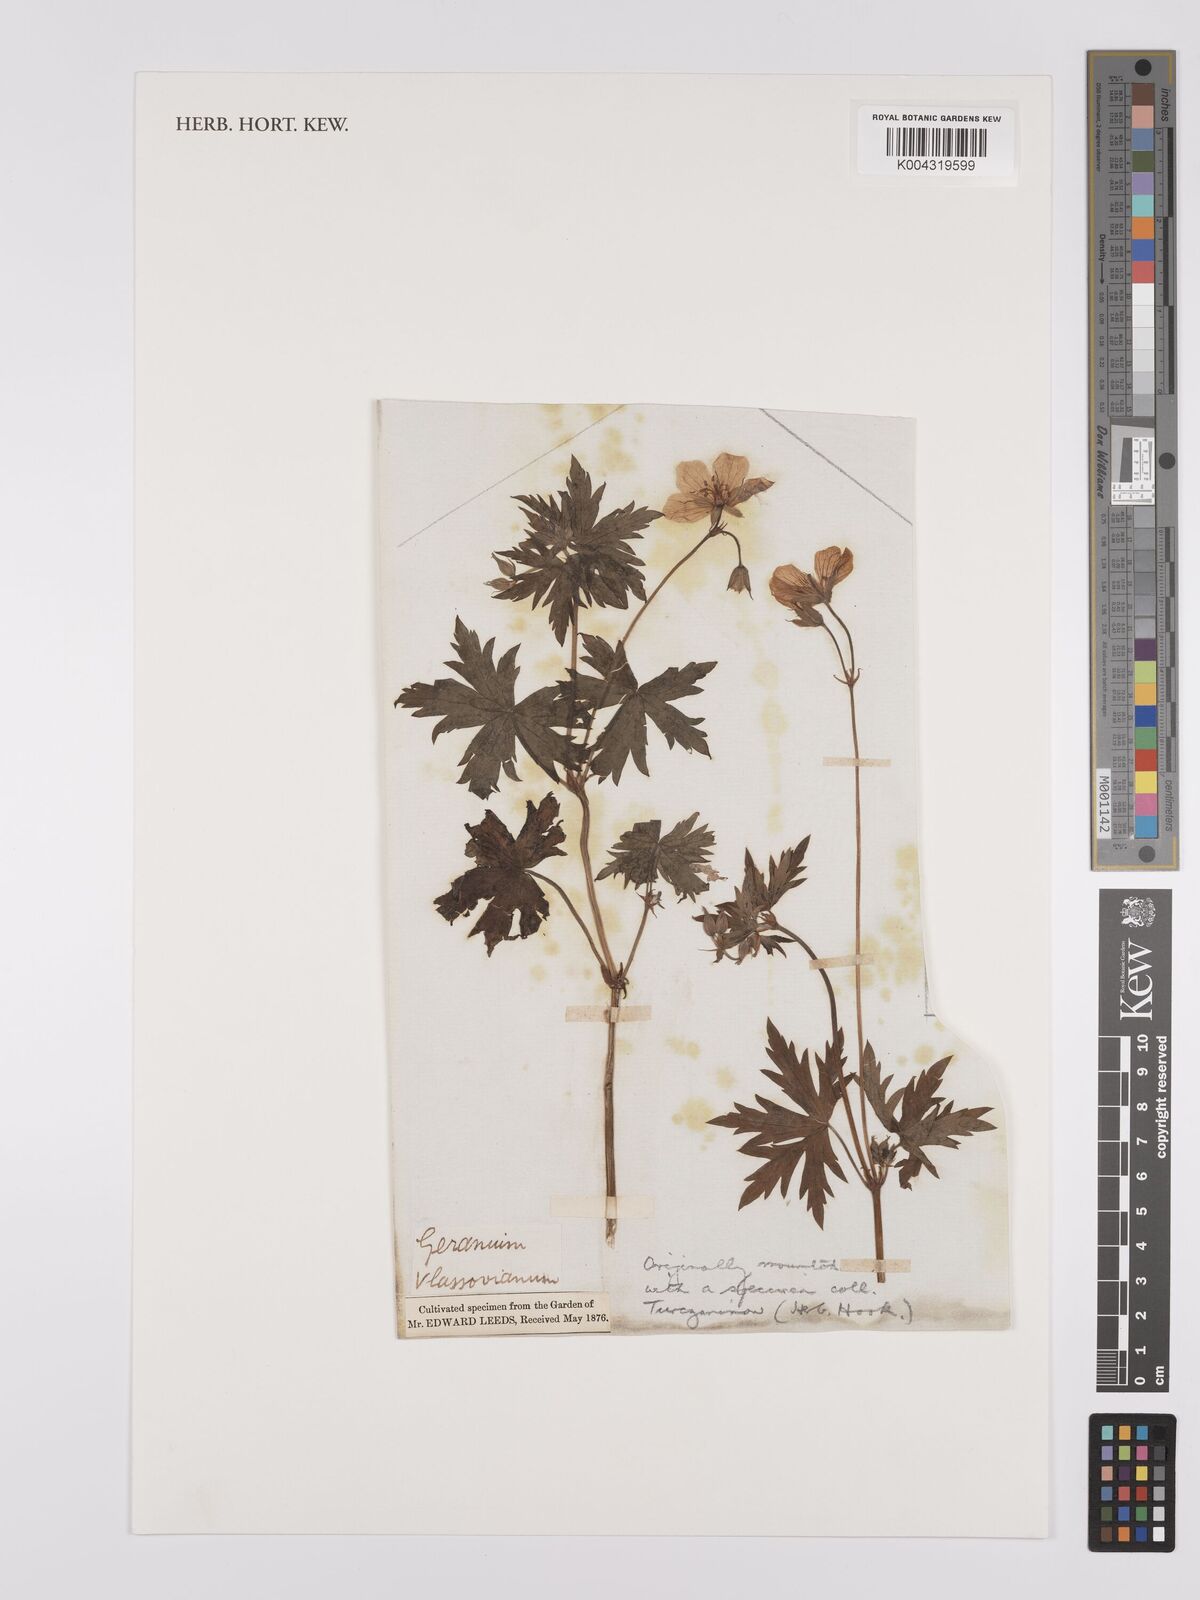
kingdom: Plantae
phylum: Tracheophyta
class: Magnoliopsida
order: Geraniales
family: Geraniaceae
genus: Geranium
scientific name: Geranium wlassovianum
